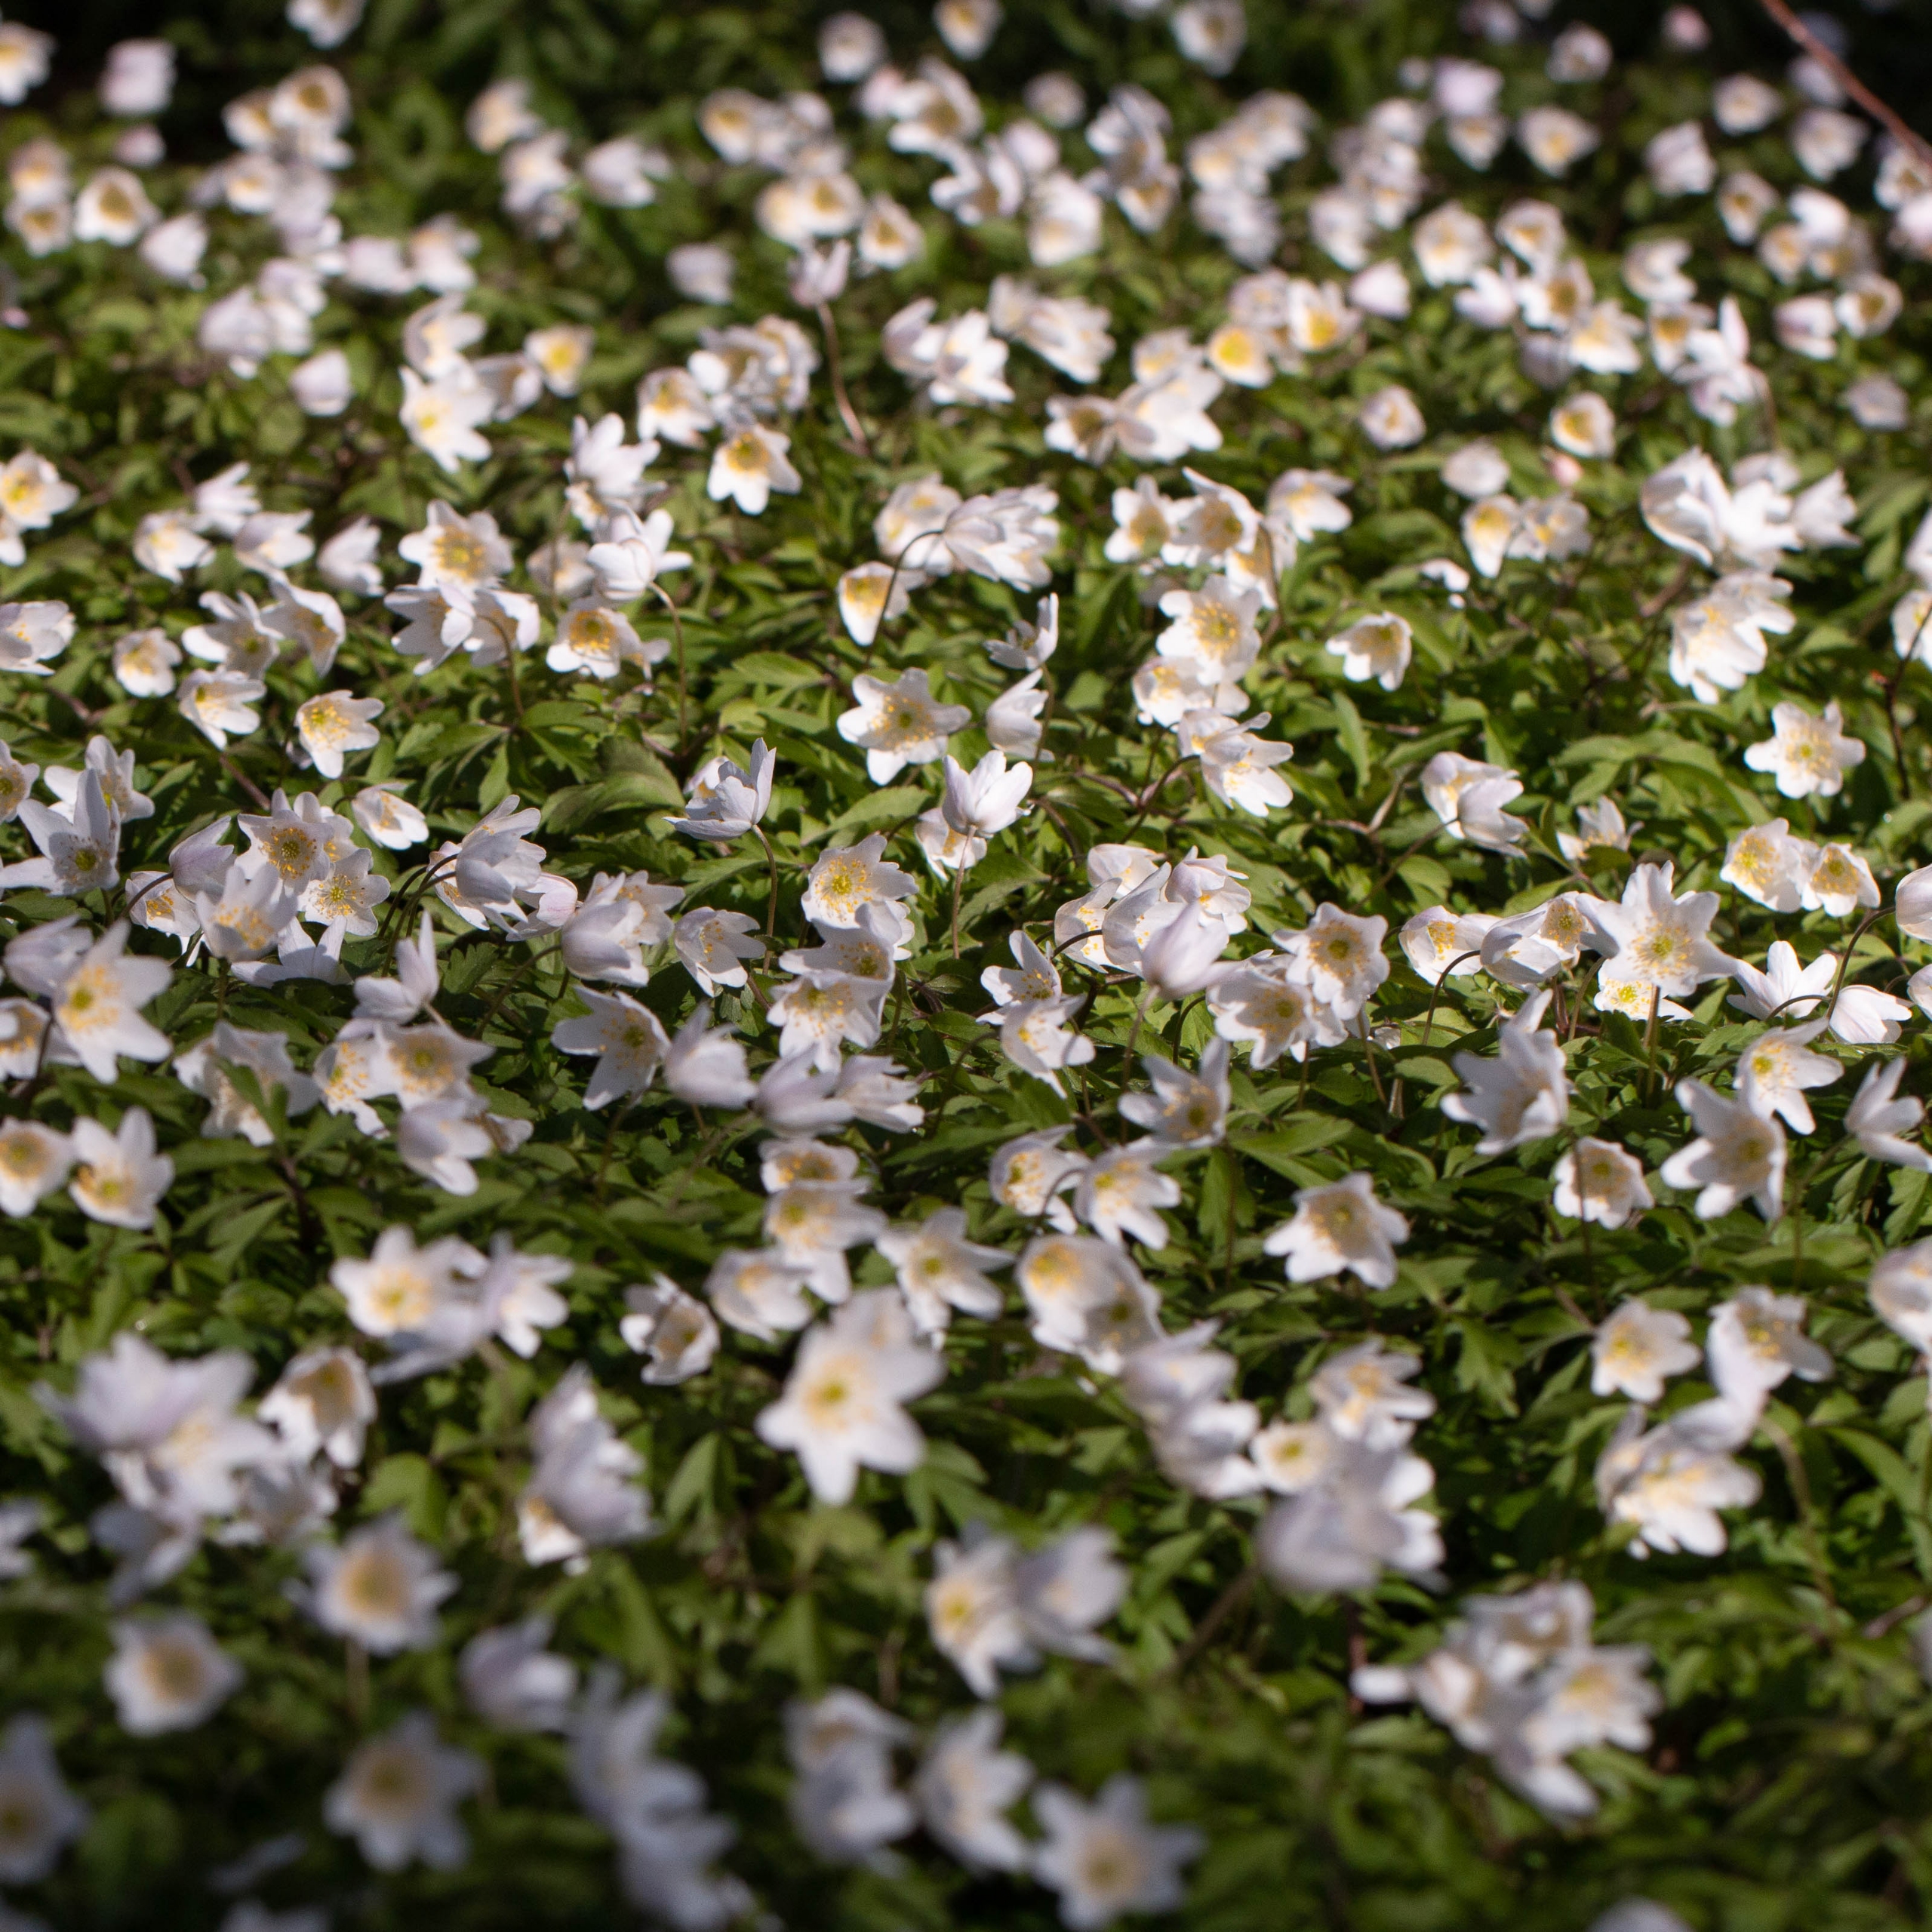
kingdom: Plantae
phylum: Tracheophyta
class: Magnoliopsida
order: Ranunculales
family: Ranunculaceae
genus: Anemone
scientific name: Anemone nemorosa
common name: Hvid anemone
